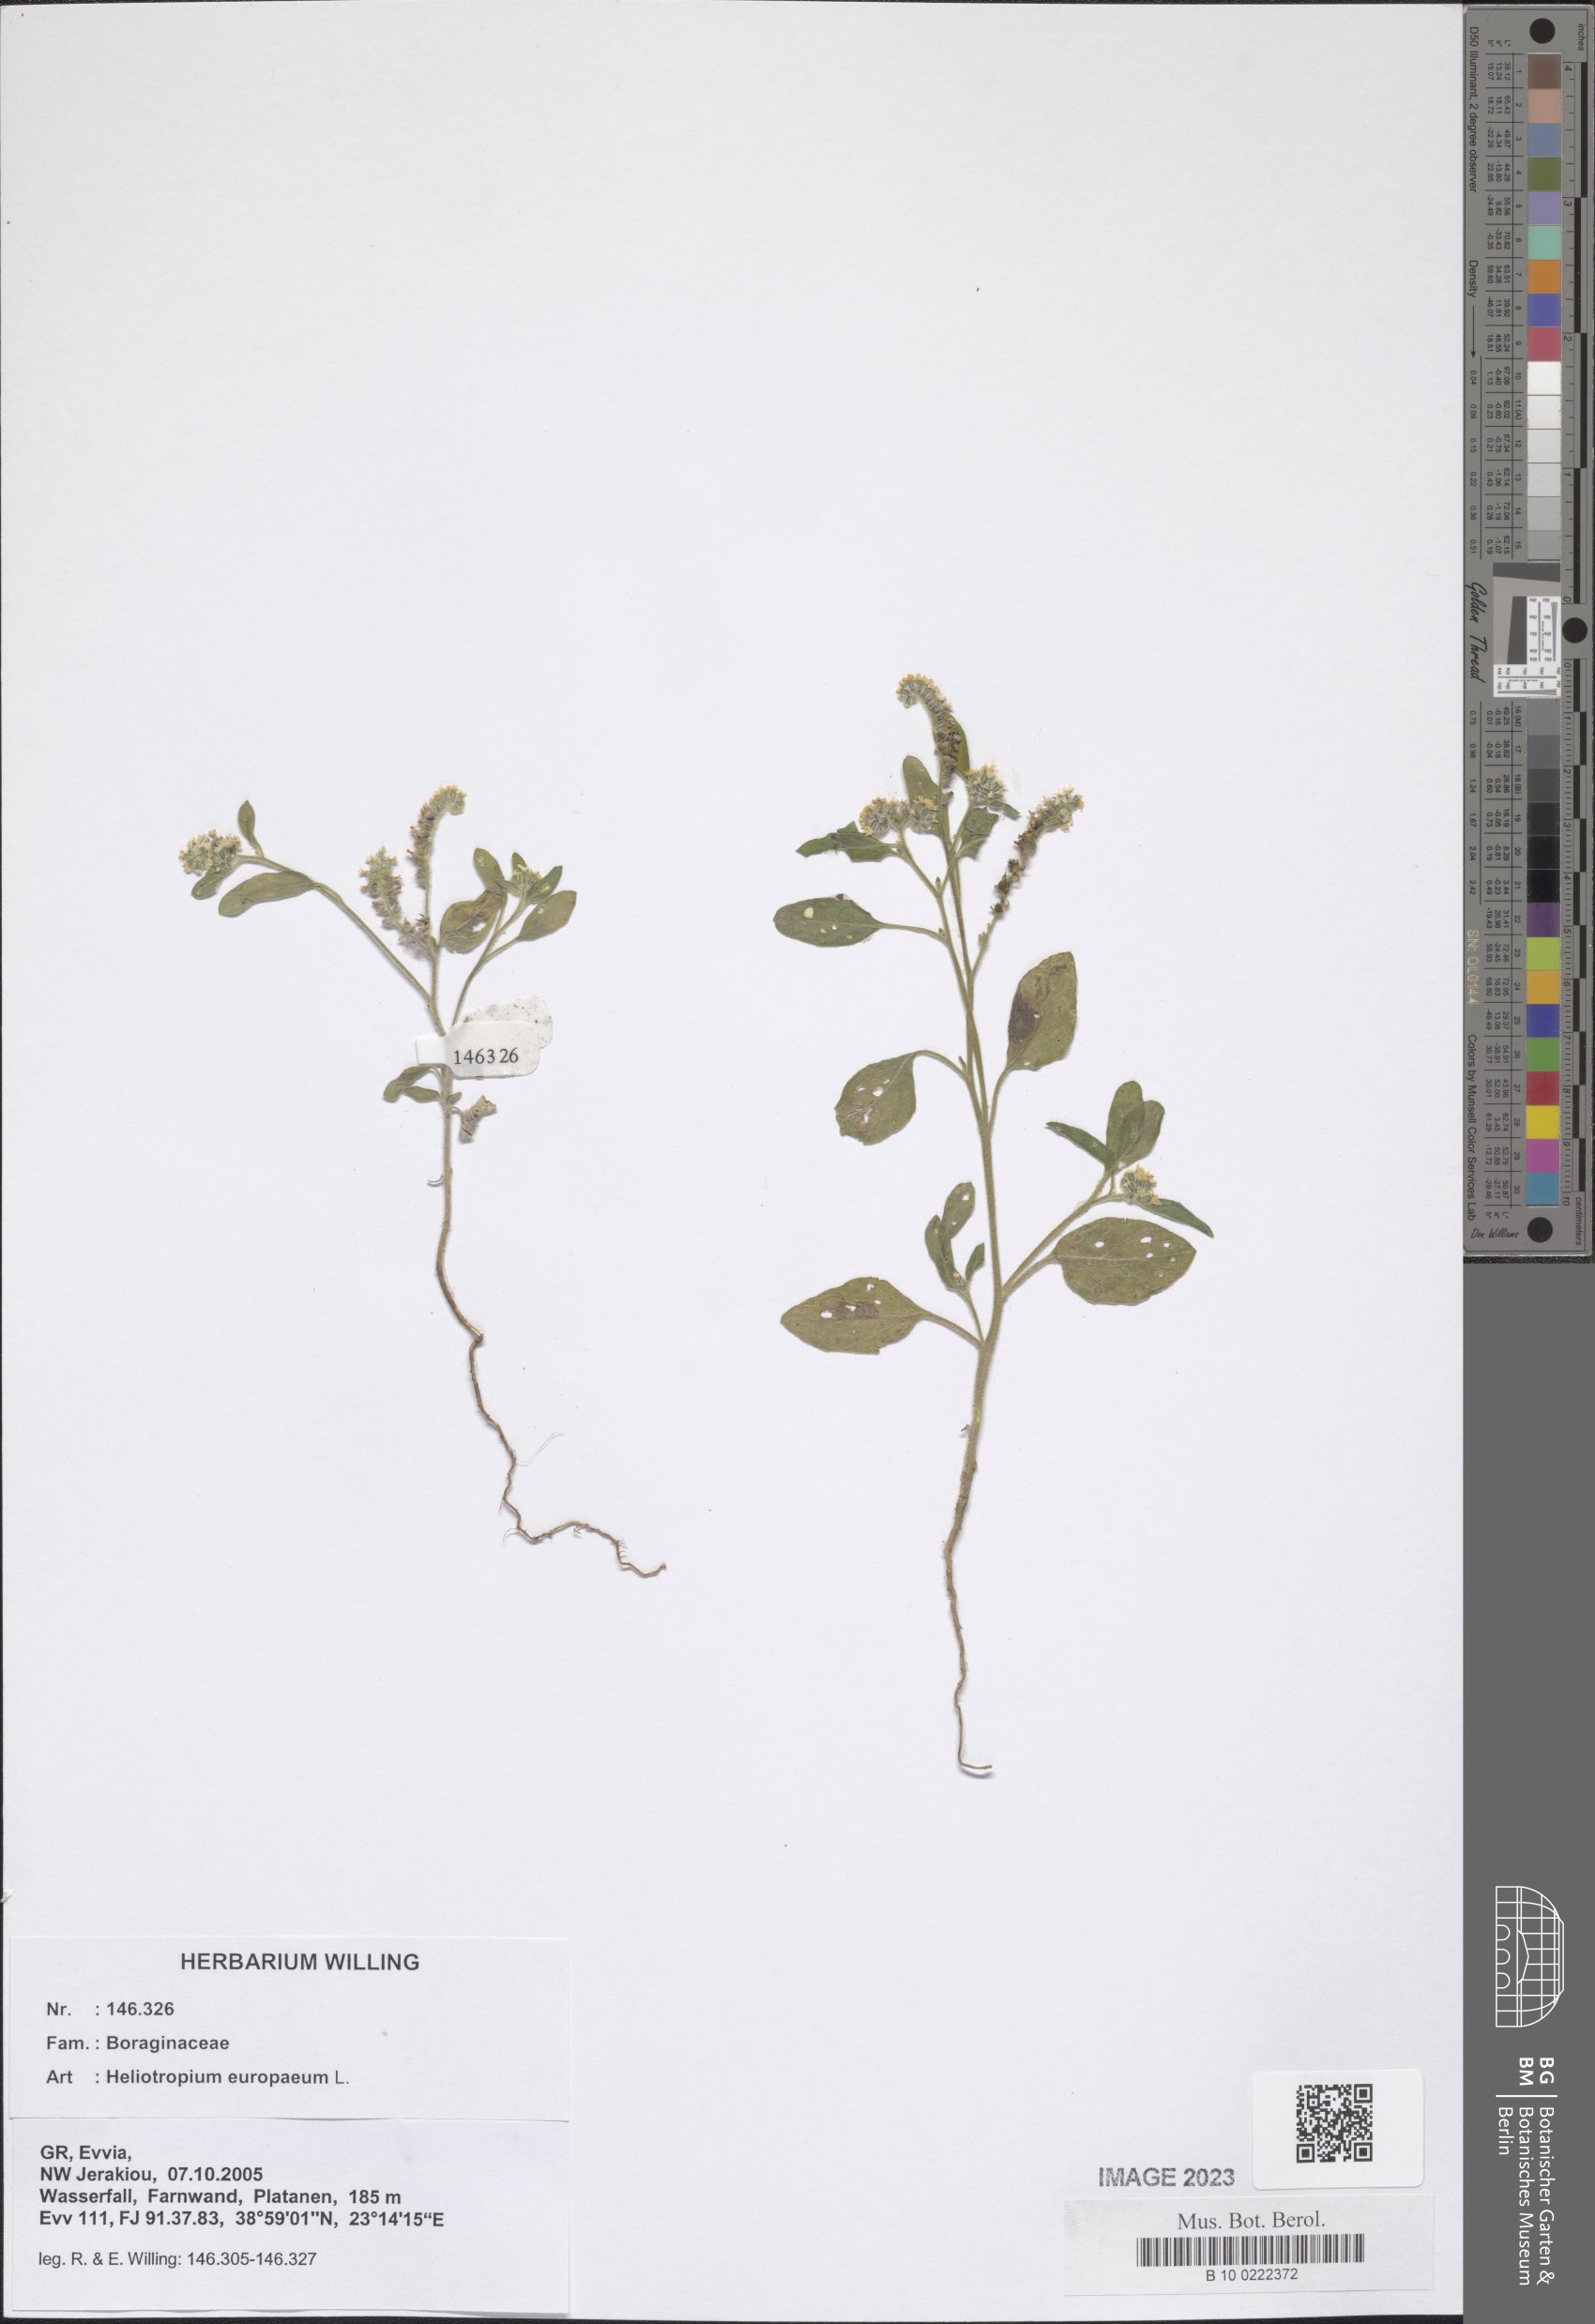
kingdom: Plantae
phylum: Tracheophyta
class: Magnoliopsida
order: Boraginales
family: Heliotropiaceae
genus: Heliotropium
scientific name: Heliotropium europaeum
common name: European heliotrope
